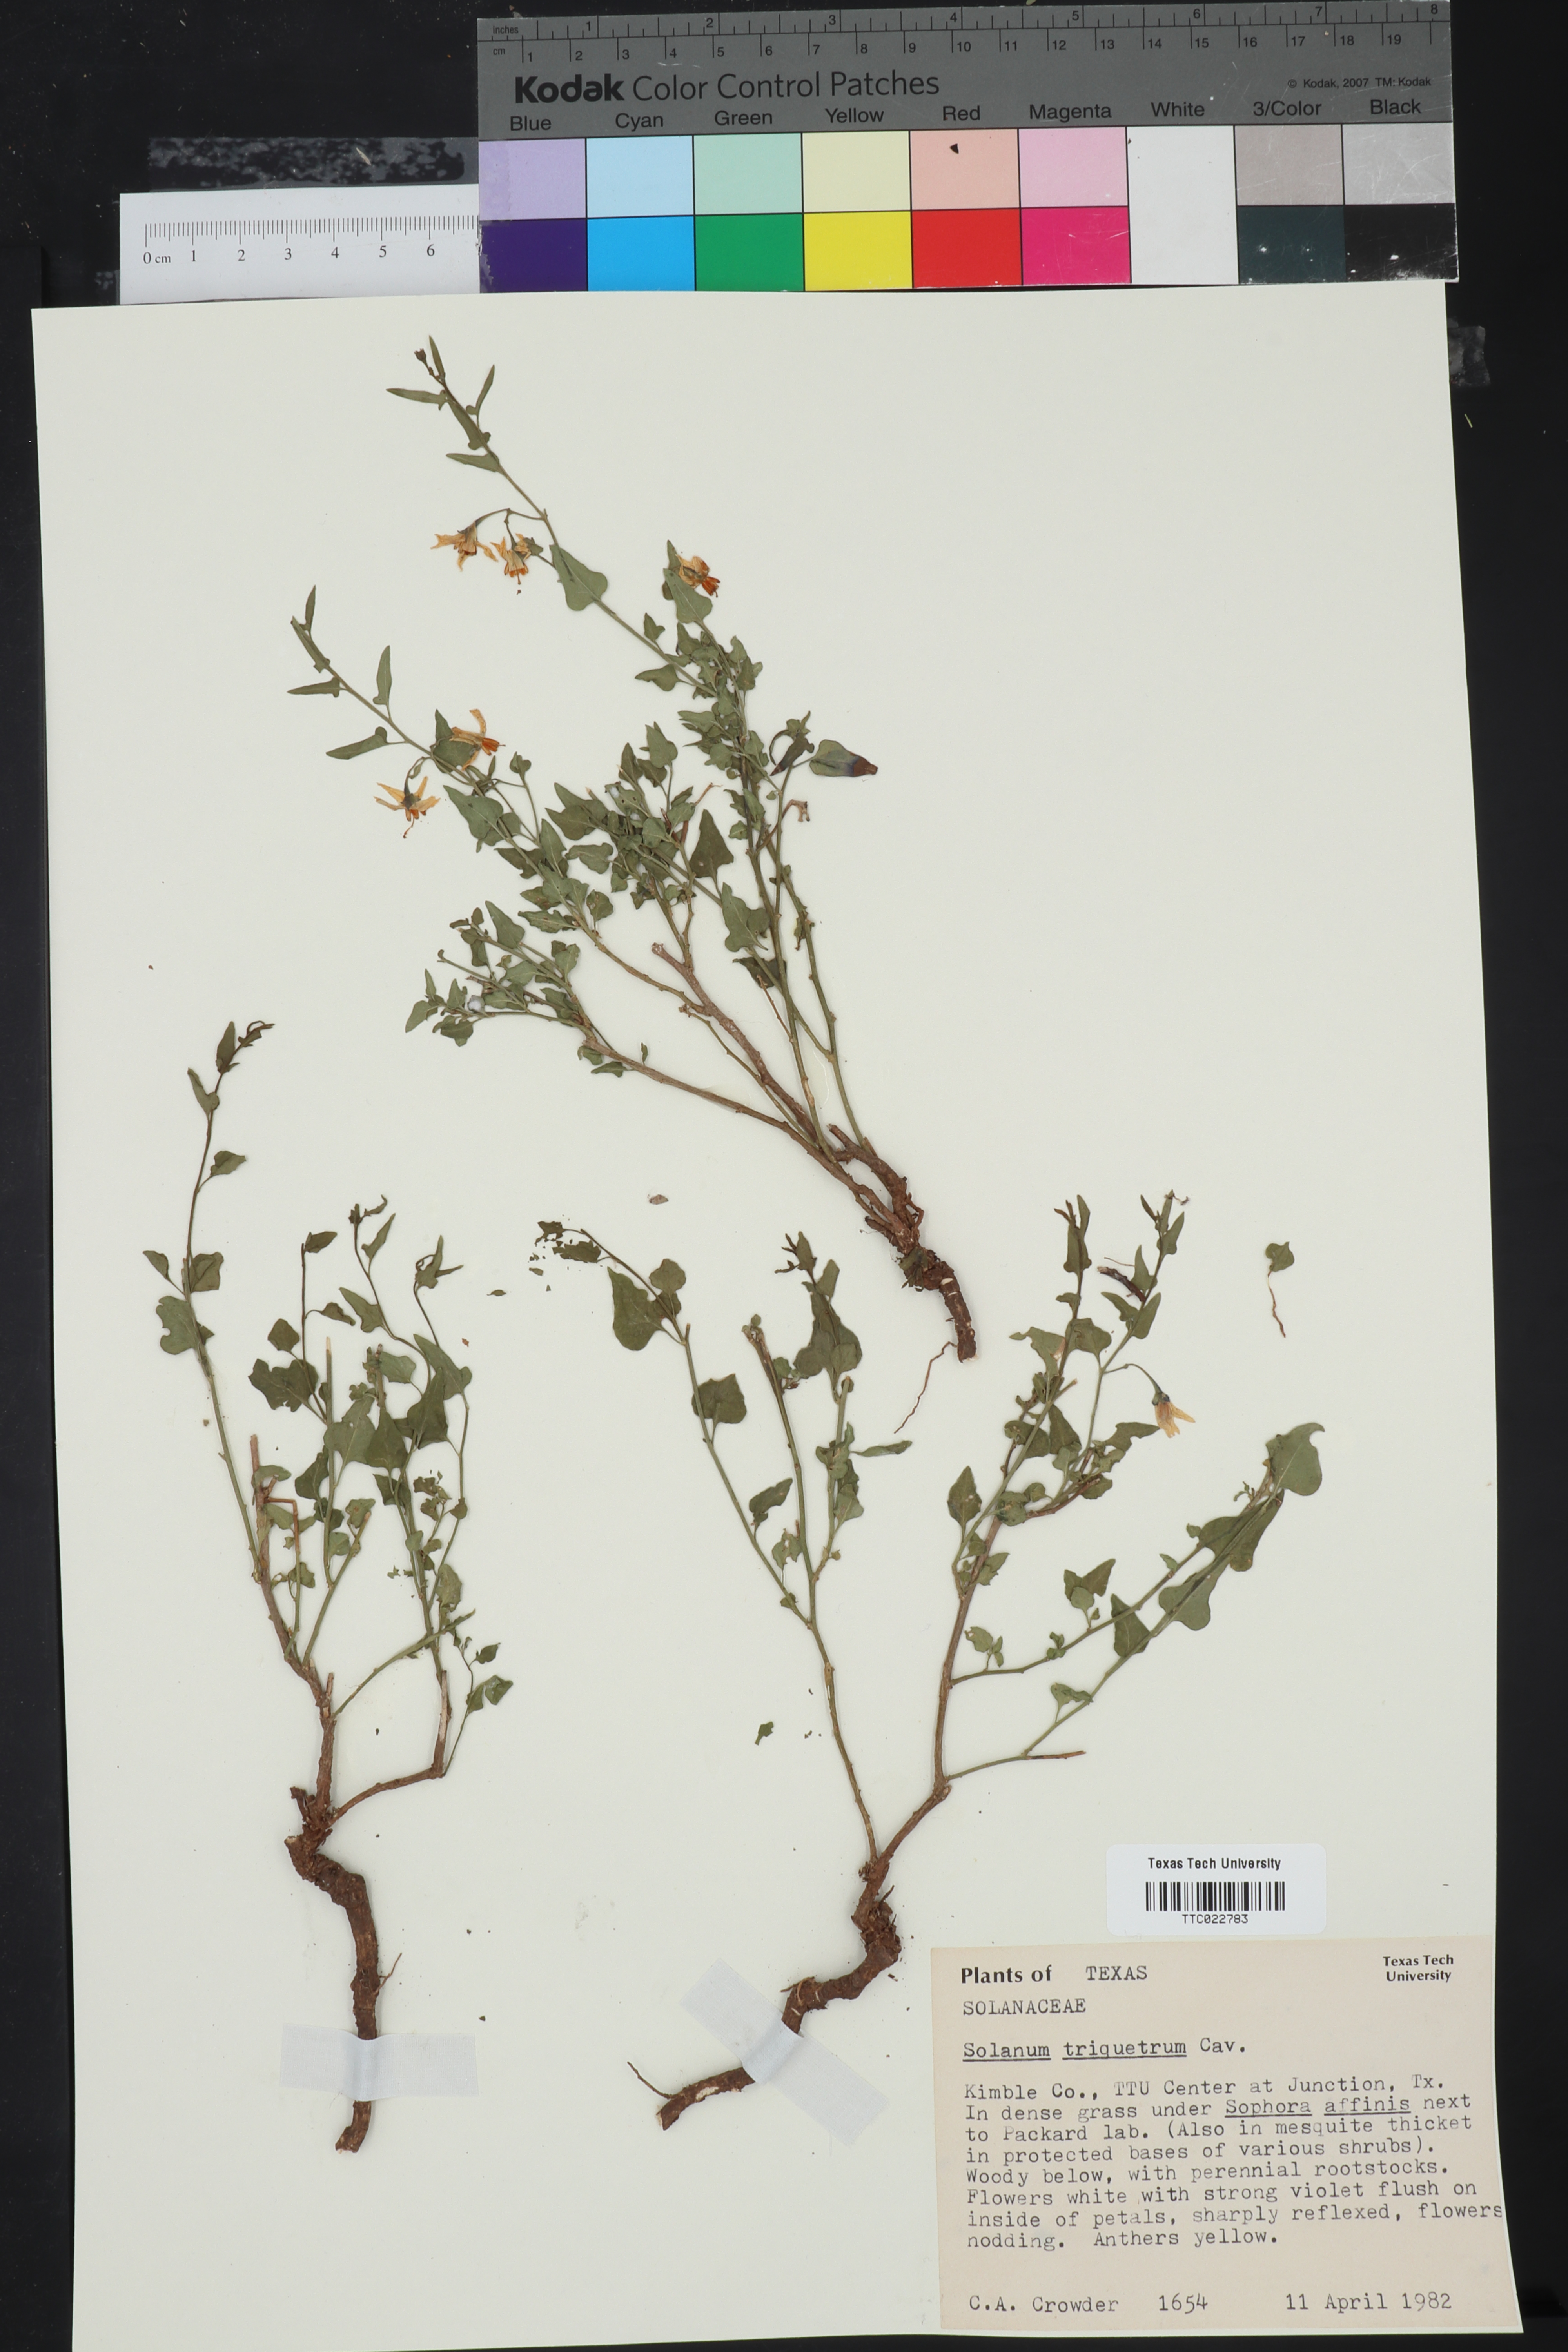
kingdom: Plantae
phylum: Tracheophyta
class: Magnoliopsida
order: Solanales
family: Solanaceae
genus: Solanum
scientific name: Solanum triquetrum
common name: Texas nightshade
